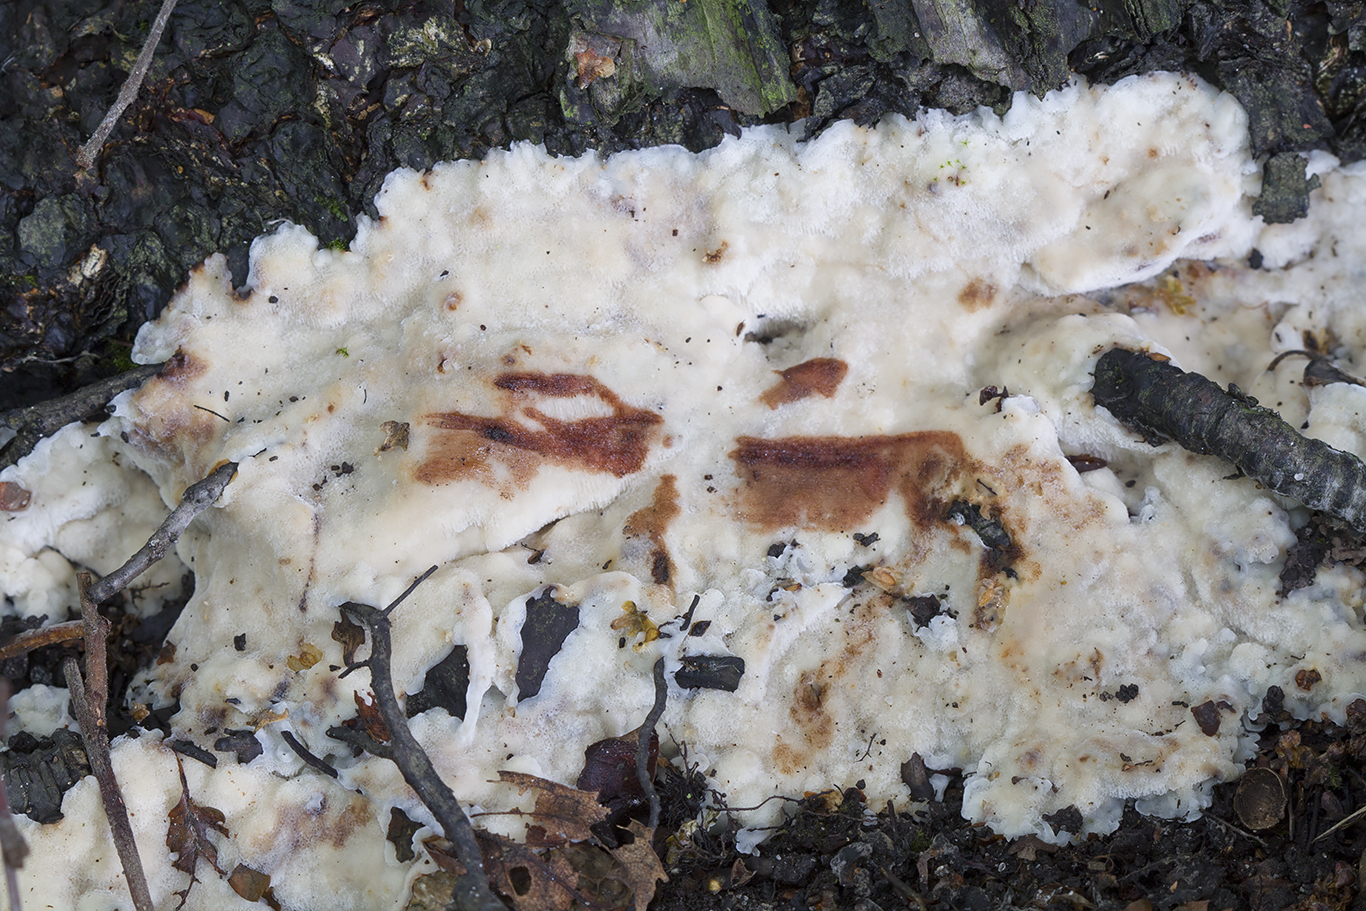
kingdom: Fungi
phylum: Basidiomycota
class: Agaricomycetes
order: Polyporales
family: Meripilaceae
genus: Rigidoporus
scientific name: Rigidoporus sanguinolentus
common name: blod-skorpeporesvamp
